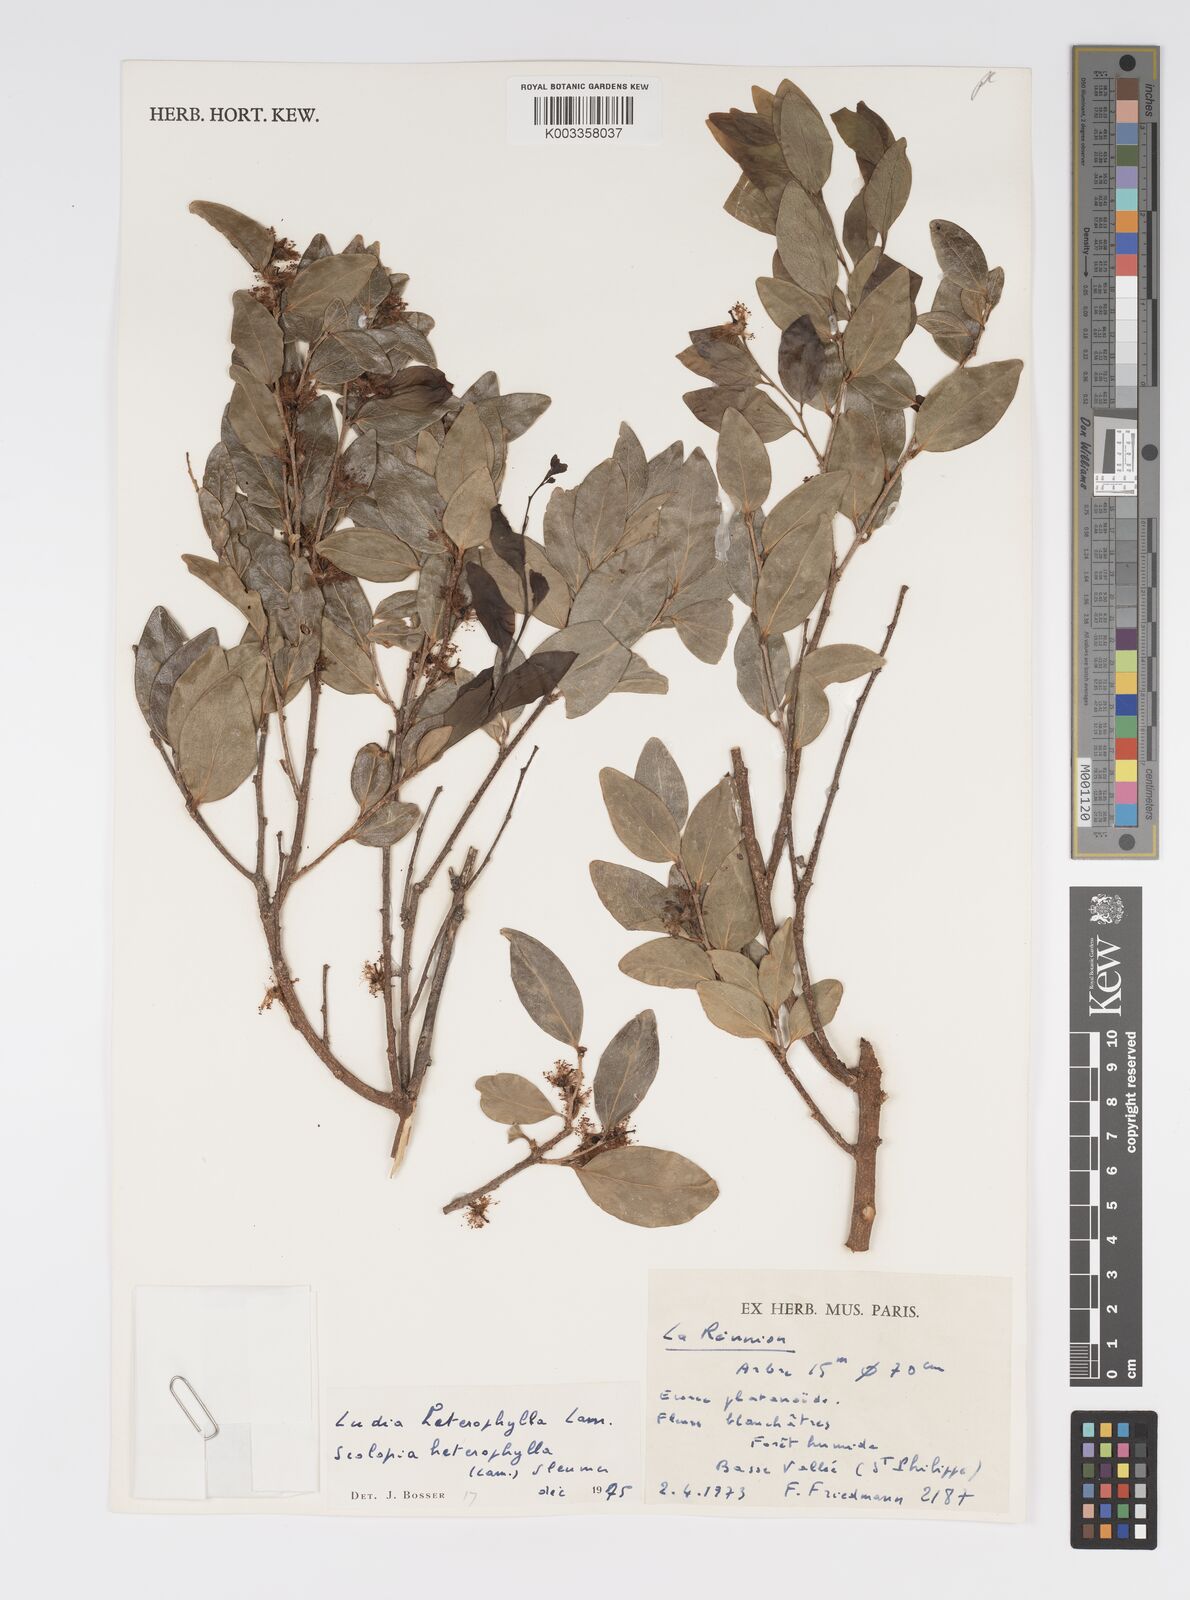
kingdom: Plantae
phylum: Tracheophyta
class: Magnoliopsida
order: Malpighiales
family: Salicaceae
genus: Scolopia
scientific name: Scolopia heterophylla
